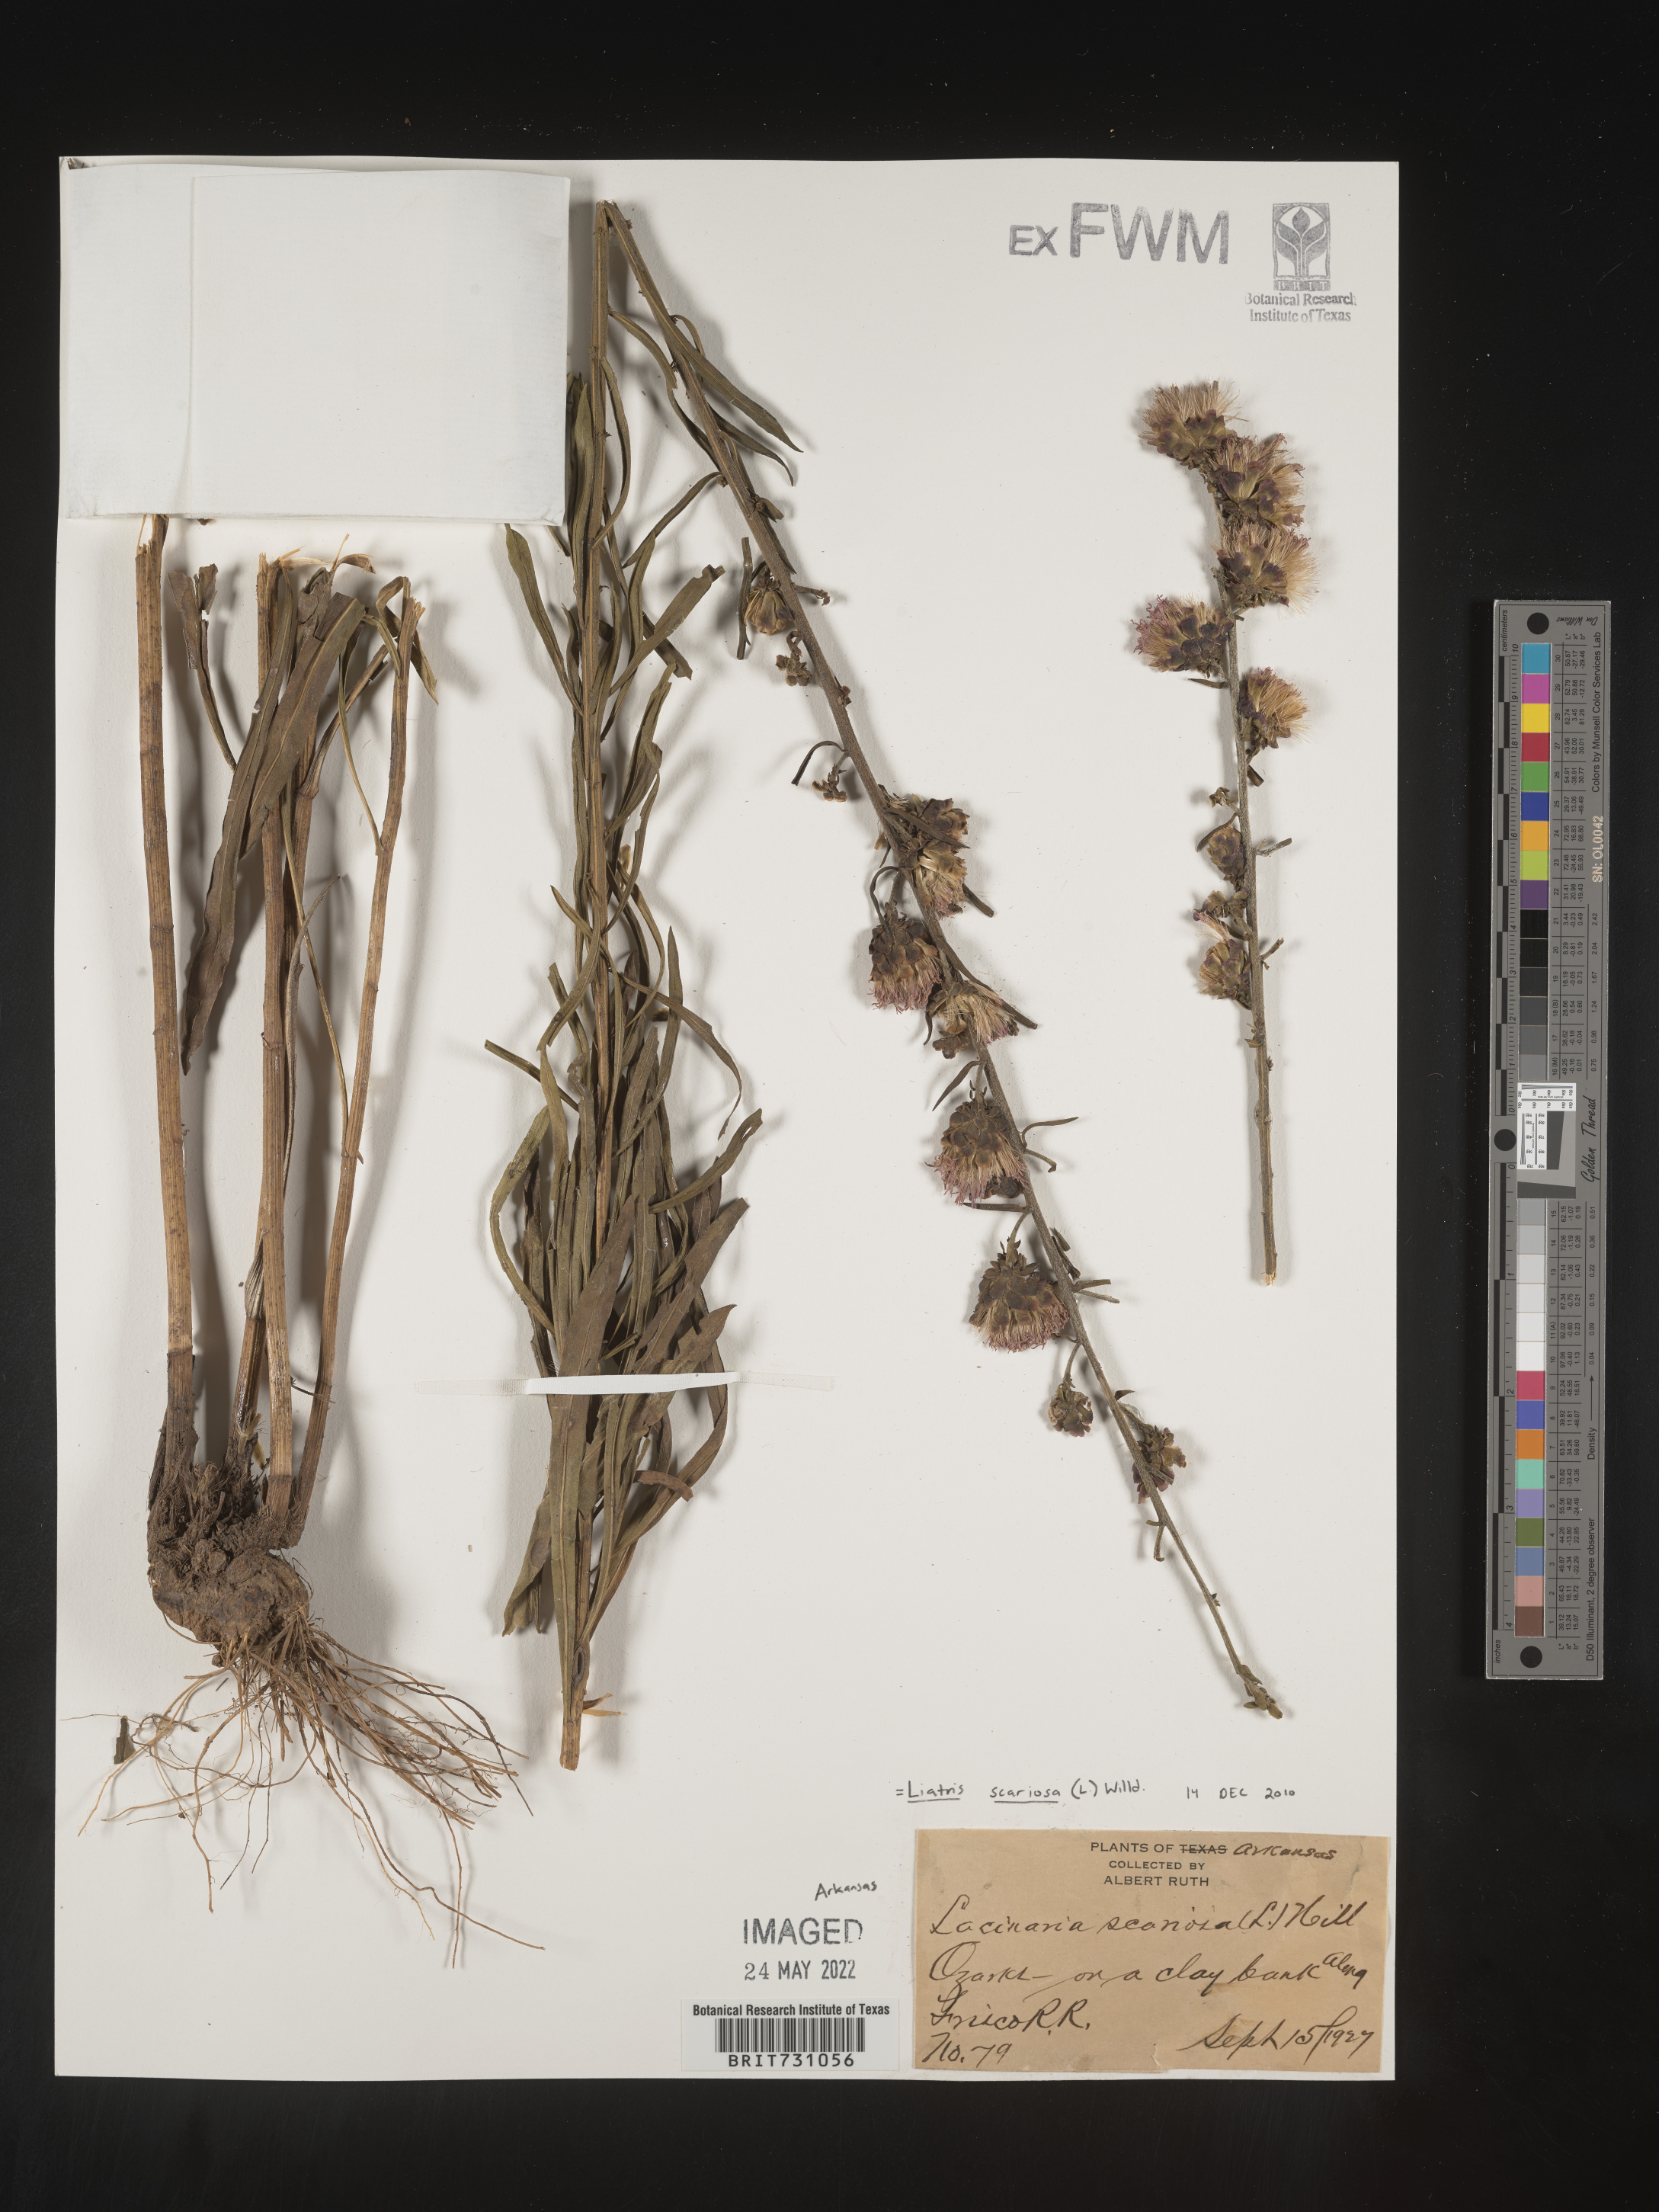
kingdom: Plantae
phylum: Tracheophyta
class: Magnoliopsida
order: Asterales
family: Asteraceae
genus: Liatris
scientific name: Liatris scariosa
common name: Northern gayfeather
